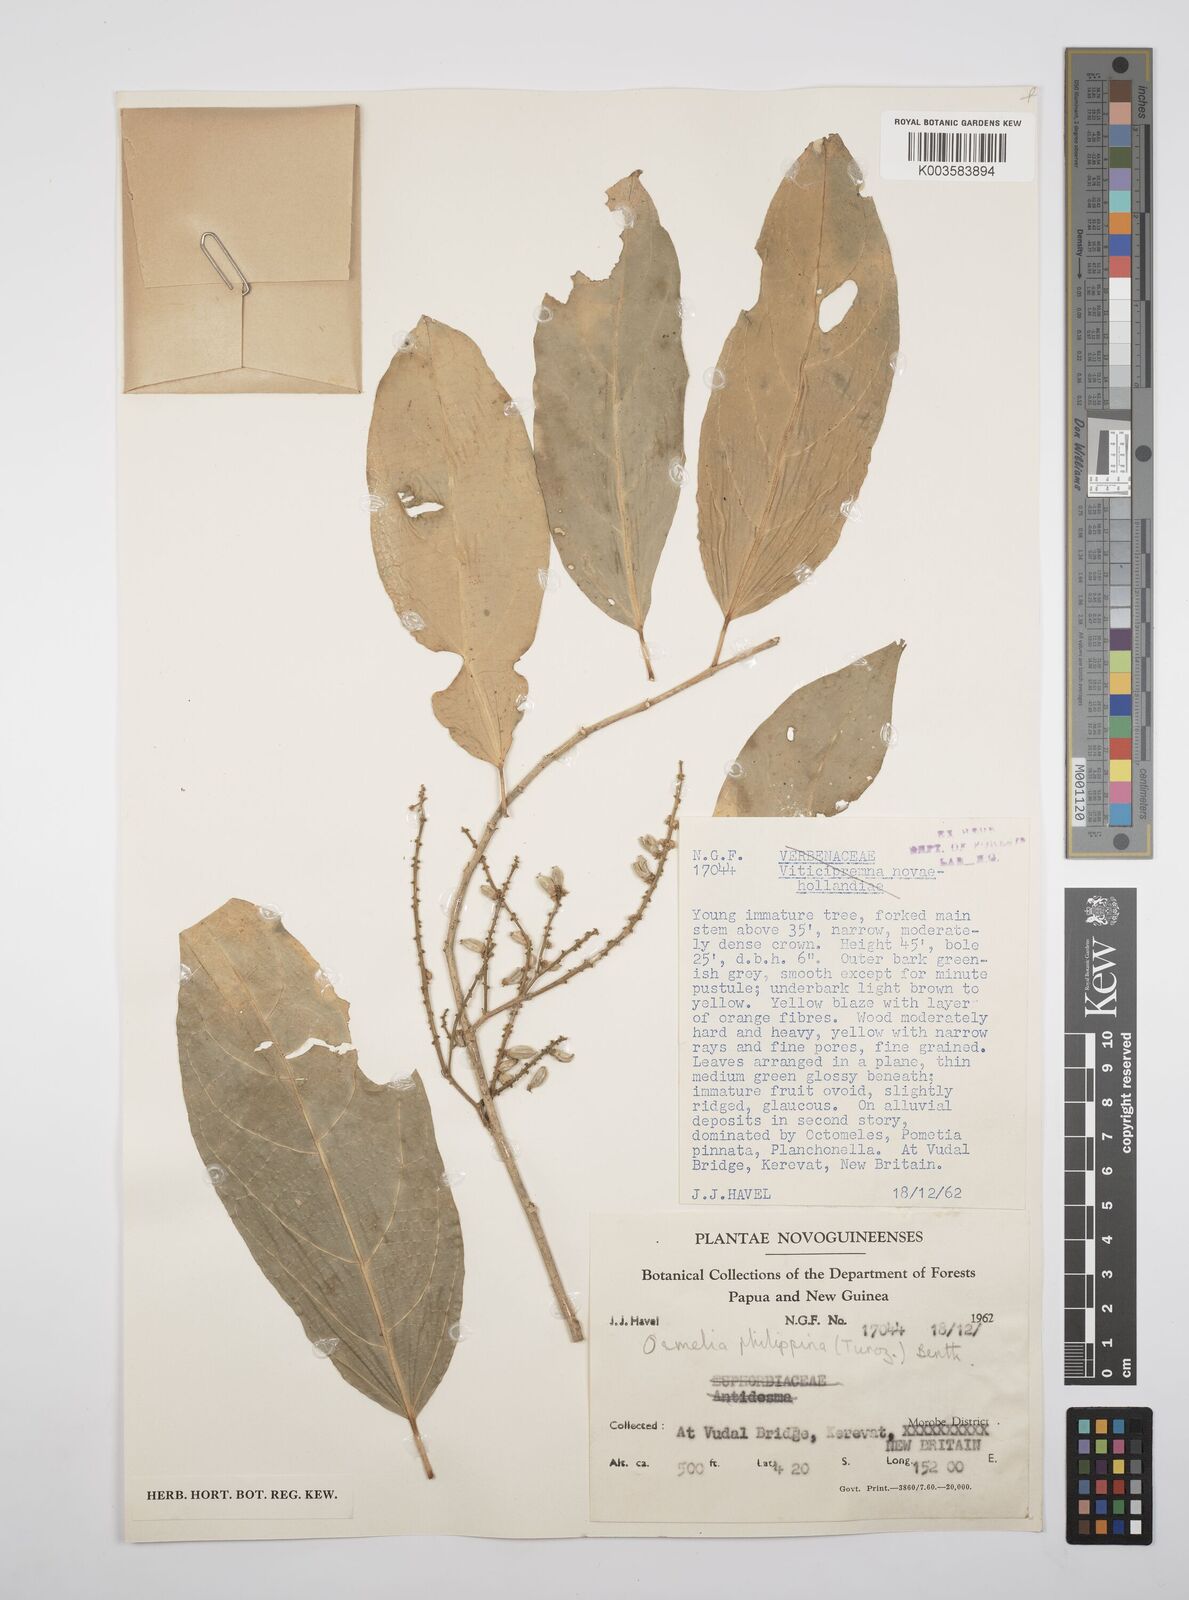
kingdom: Plantae
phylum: Tracheophyta
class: Magnoliopsida
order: Malpighiales
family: Salicaceae
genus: Osmelia
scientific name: Osmelia philippina
